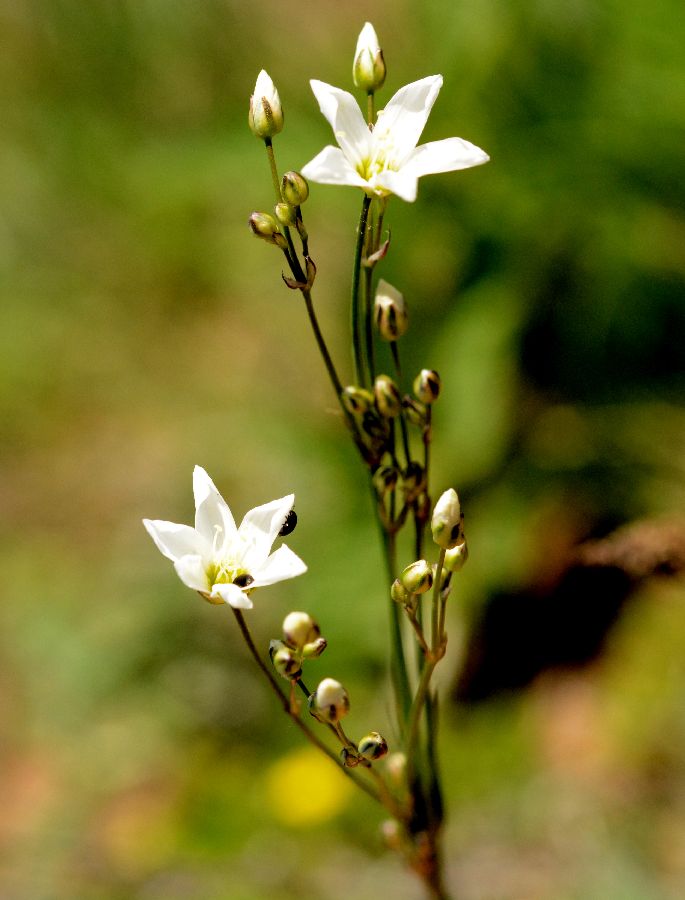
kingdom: Plantae
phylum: Tracheophyta
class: Magnoliopsida
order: Caryophyllales
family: Caryophyllaceae
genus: Eremogone
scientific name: Eremogone macradenia
